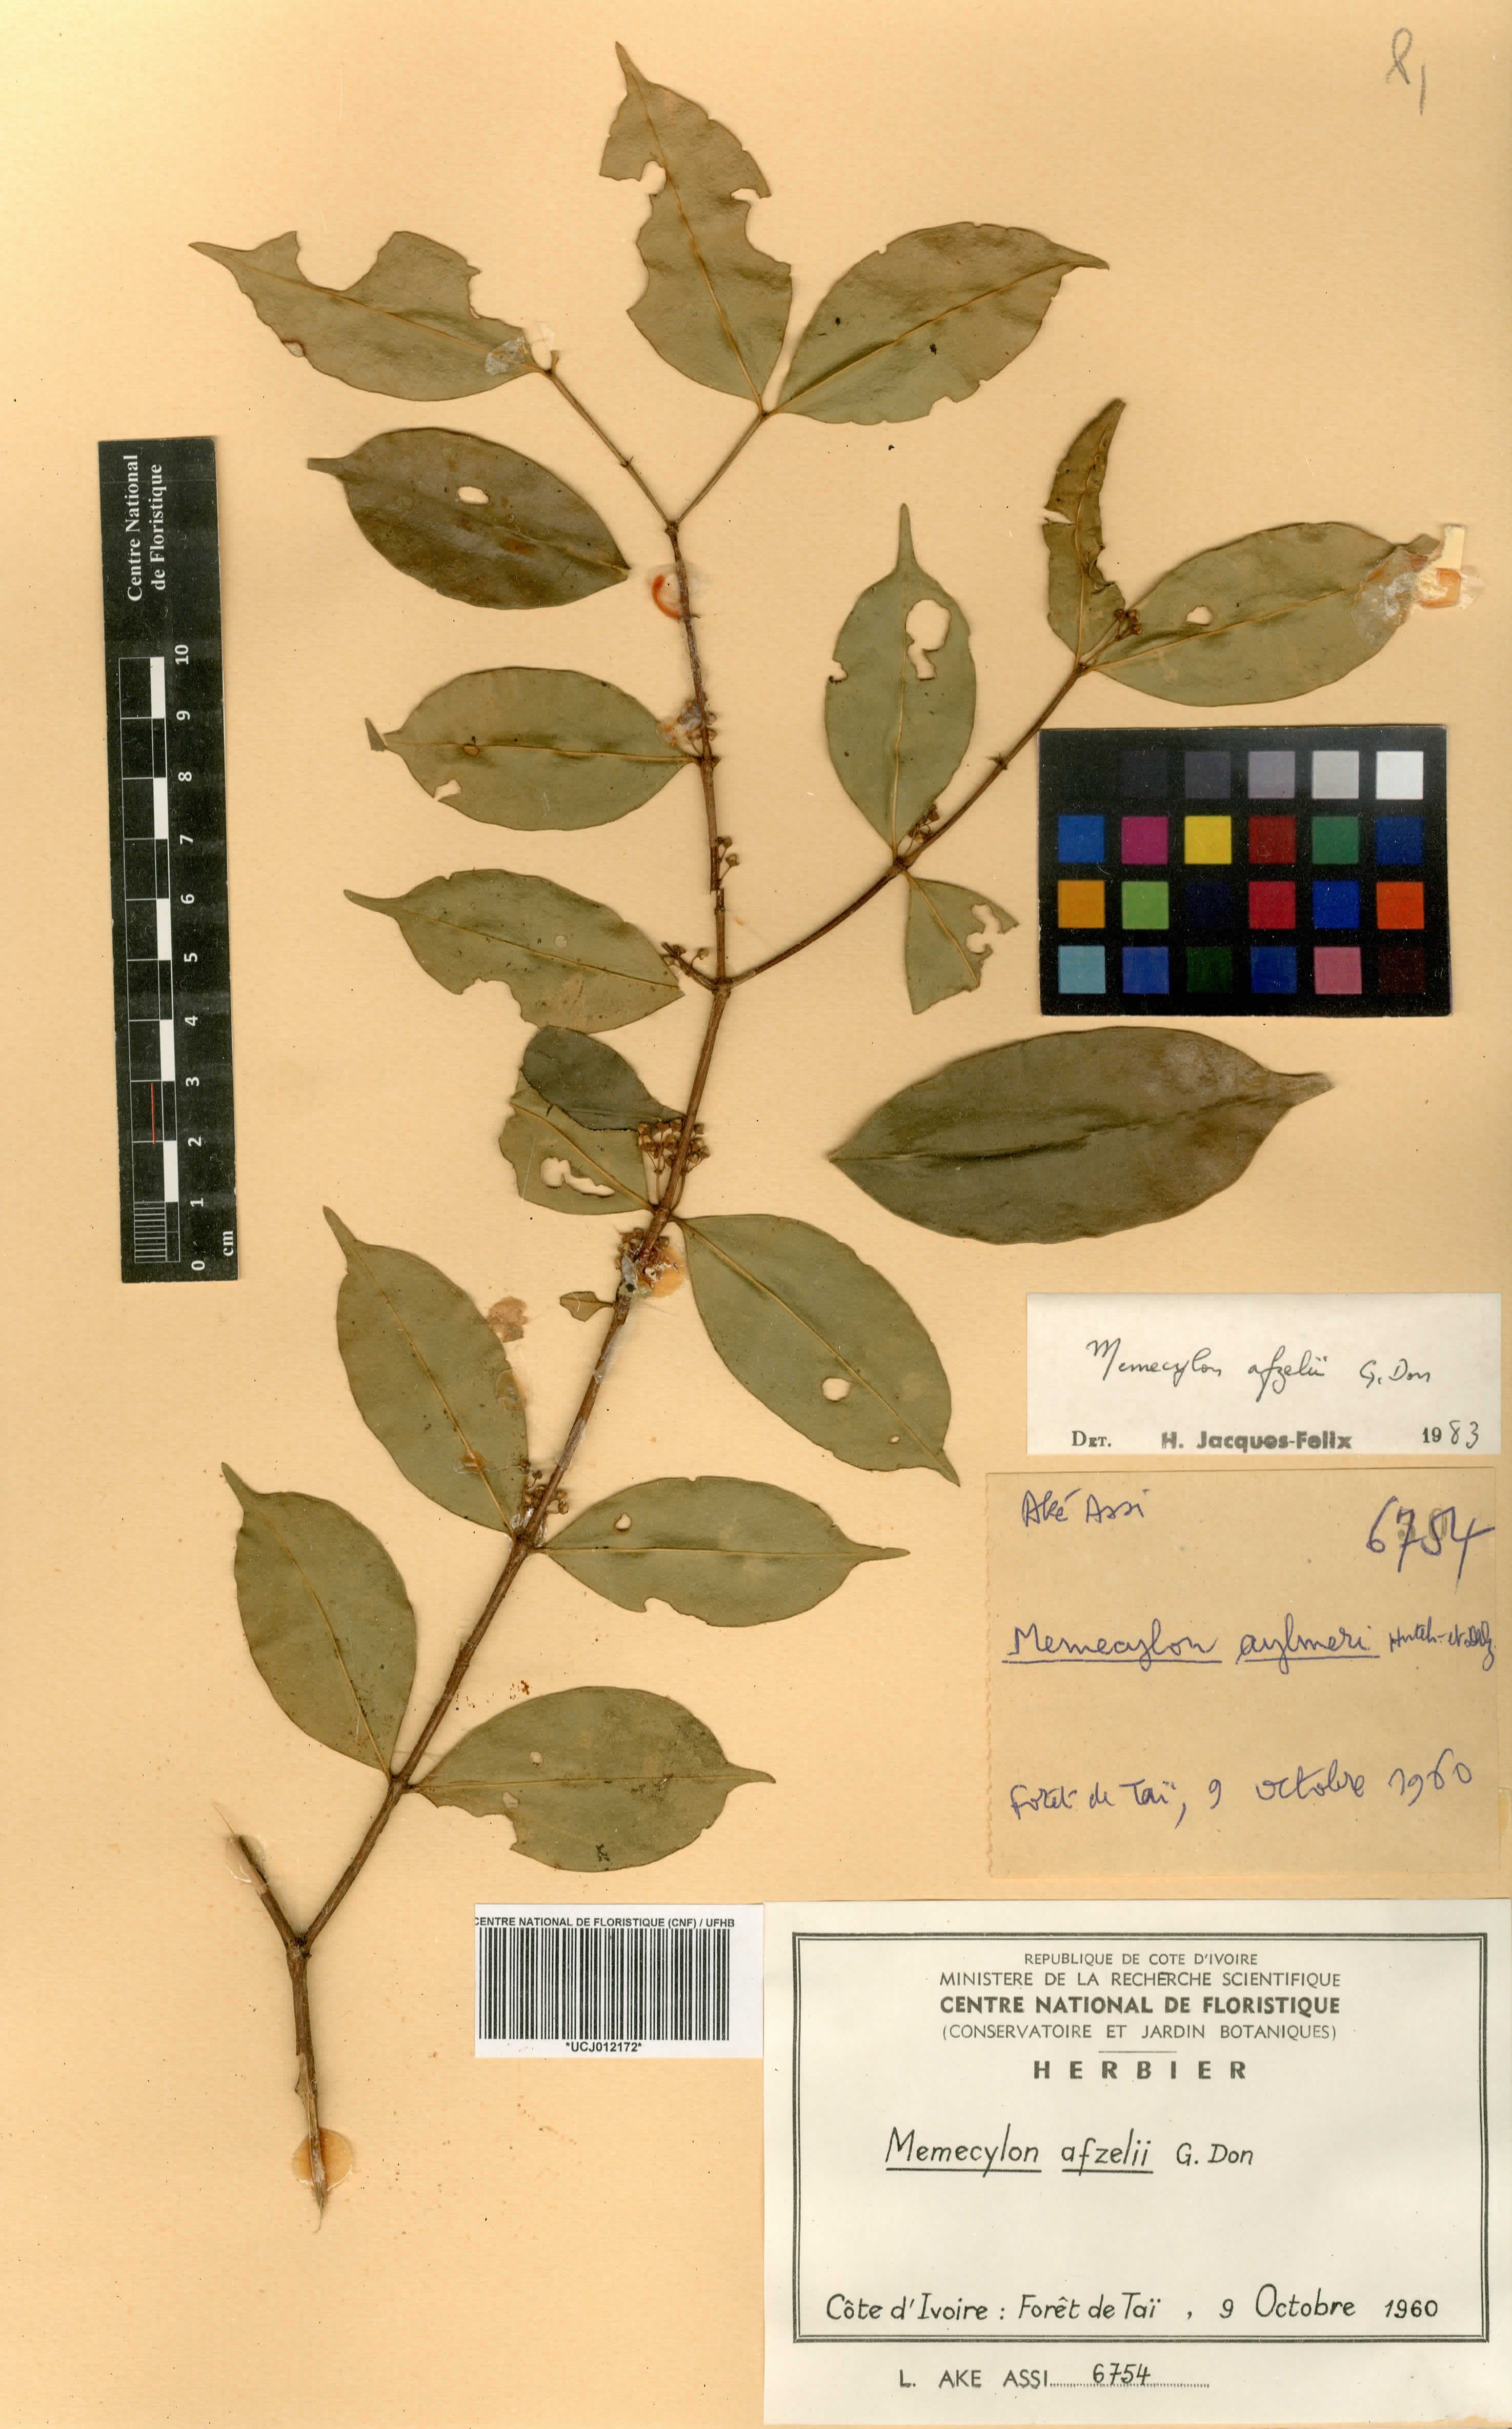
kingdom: Plantae
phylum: Tracheophyta
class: Magnoliopsida
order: Myrtales
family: Melastomataceae
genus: Memecylon
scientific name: Memecylon afzelii
